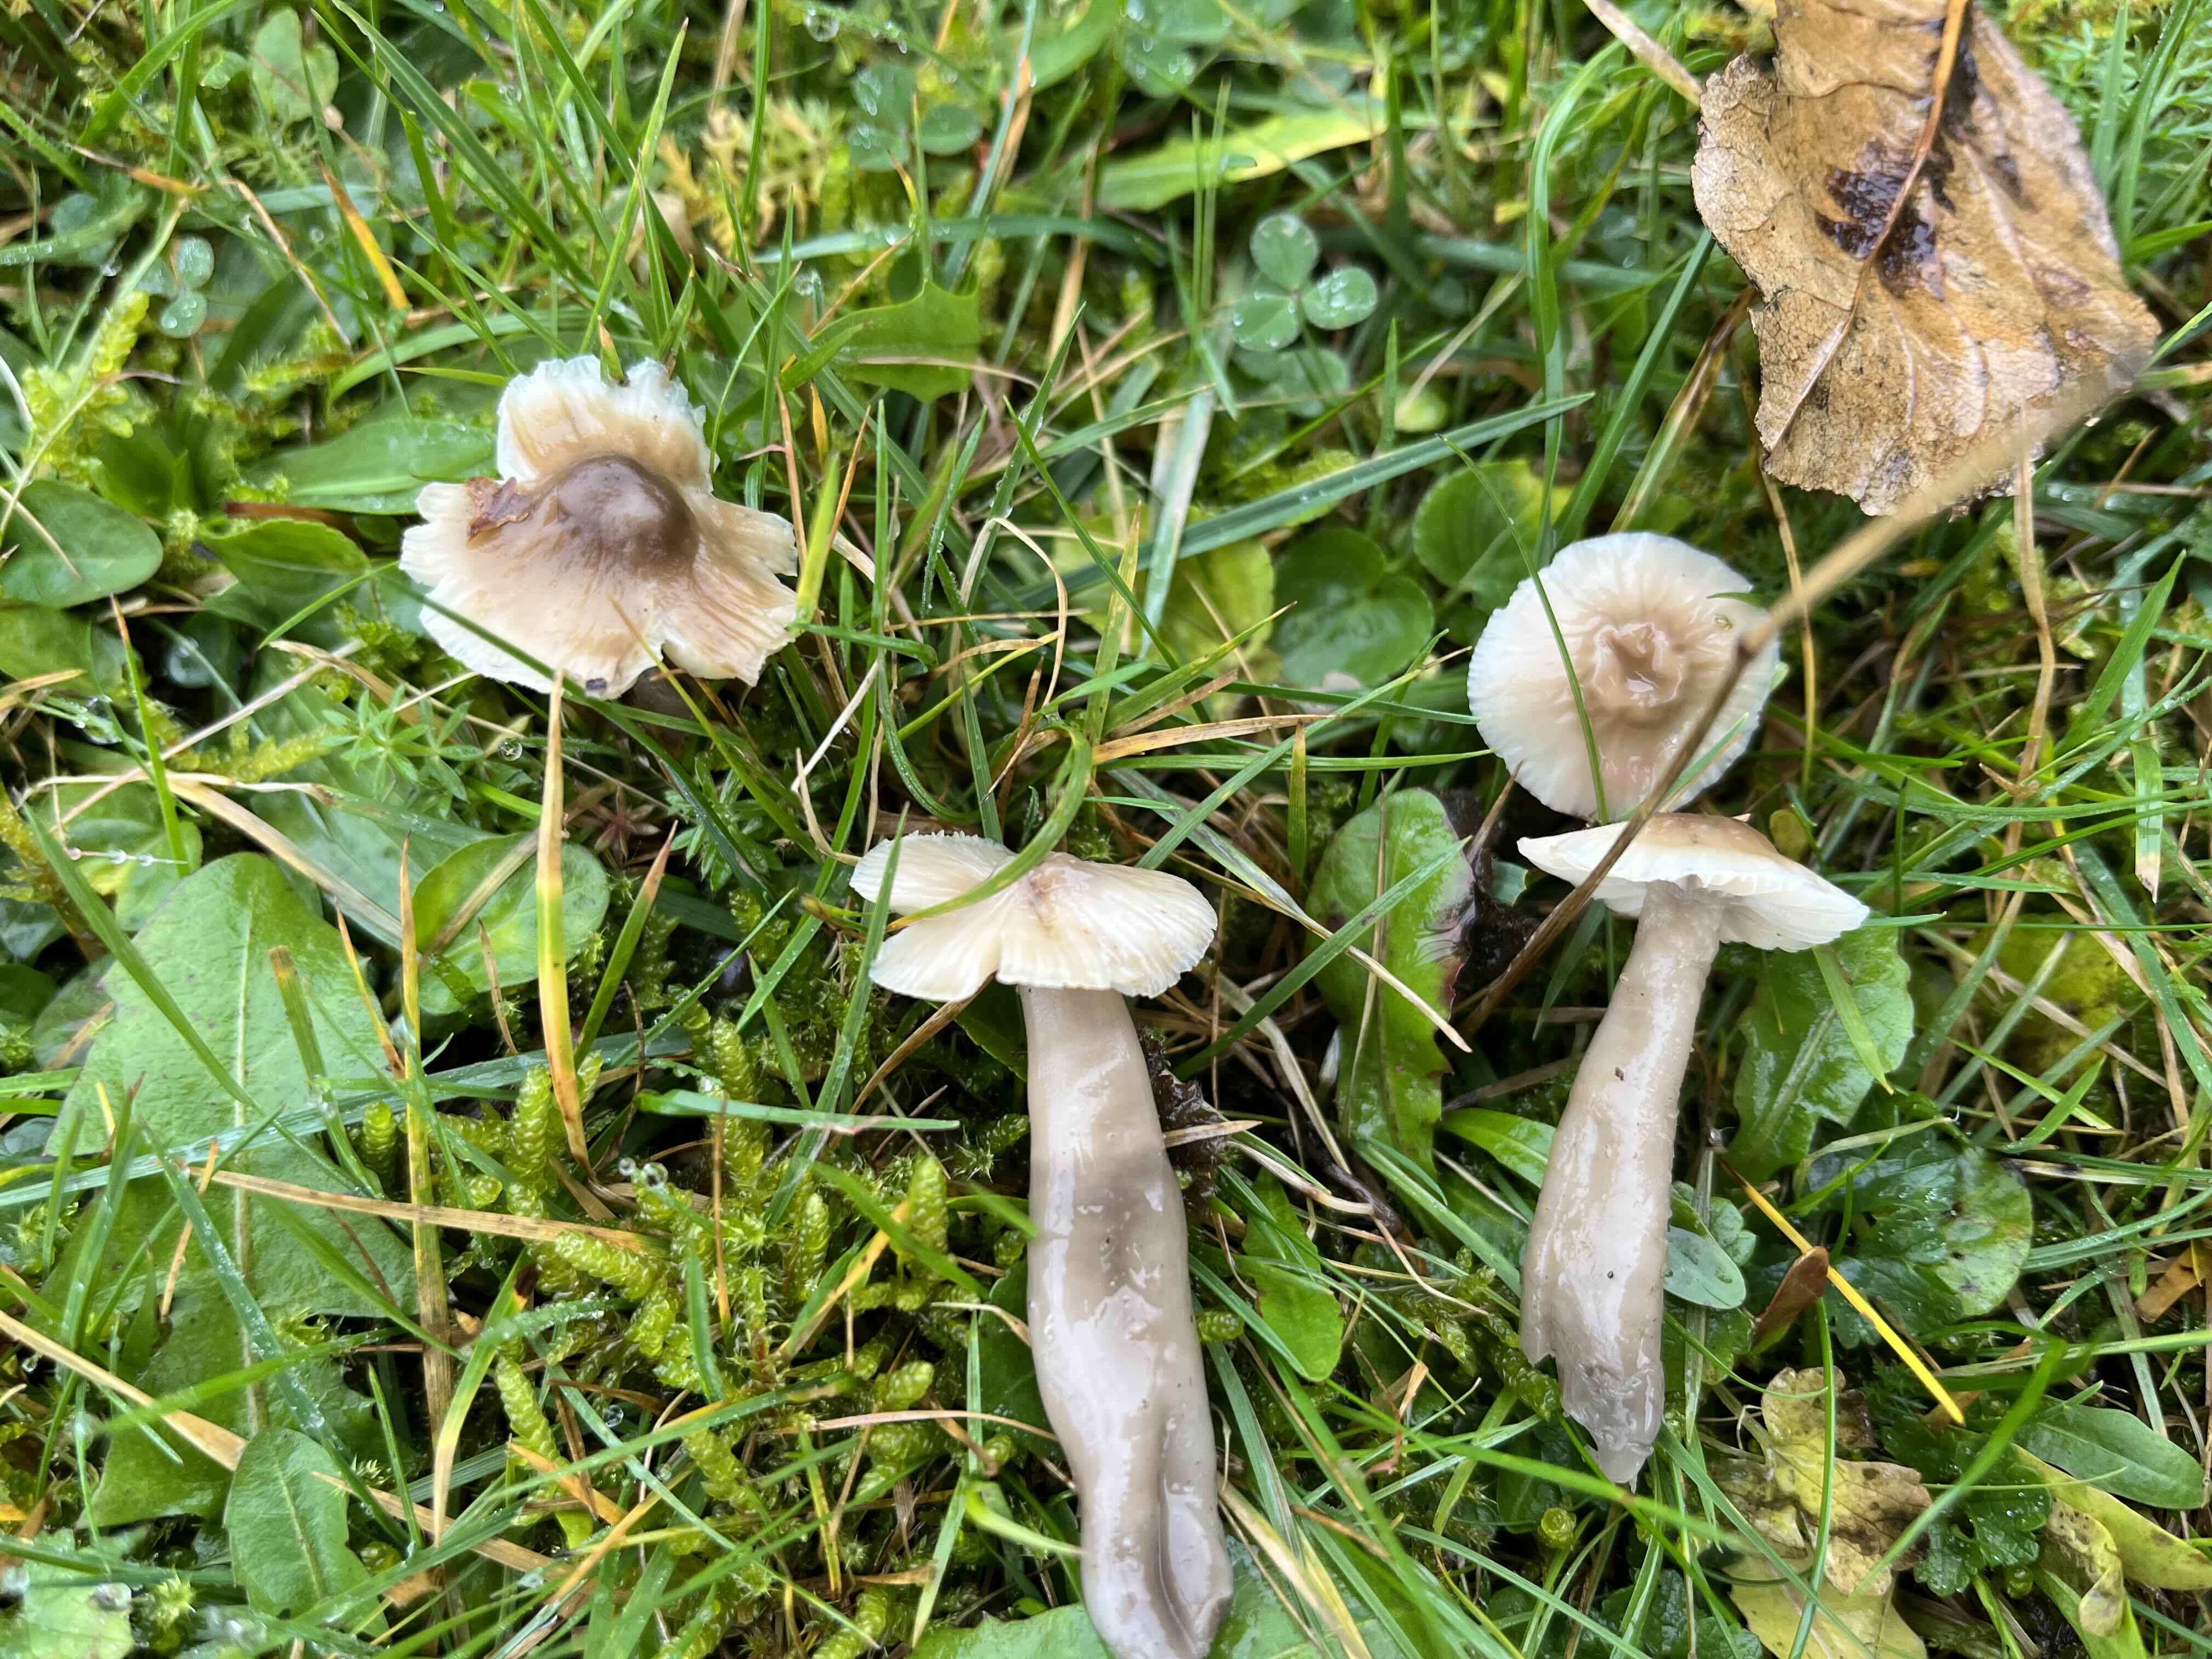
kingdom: Fungi
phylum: Basidiomycota
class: Agaricomycetes
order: Agaricales
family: Hygrophoraceae
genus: Gliophorus
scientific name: Gliophorus irrigatus
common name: slimet vokshat
